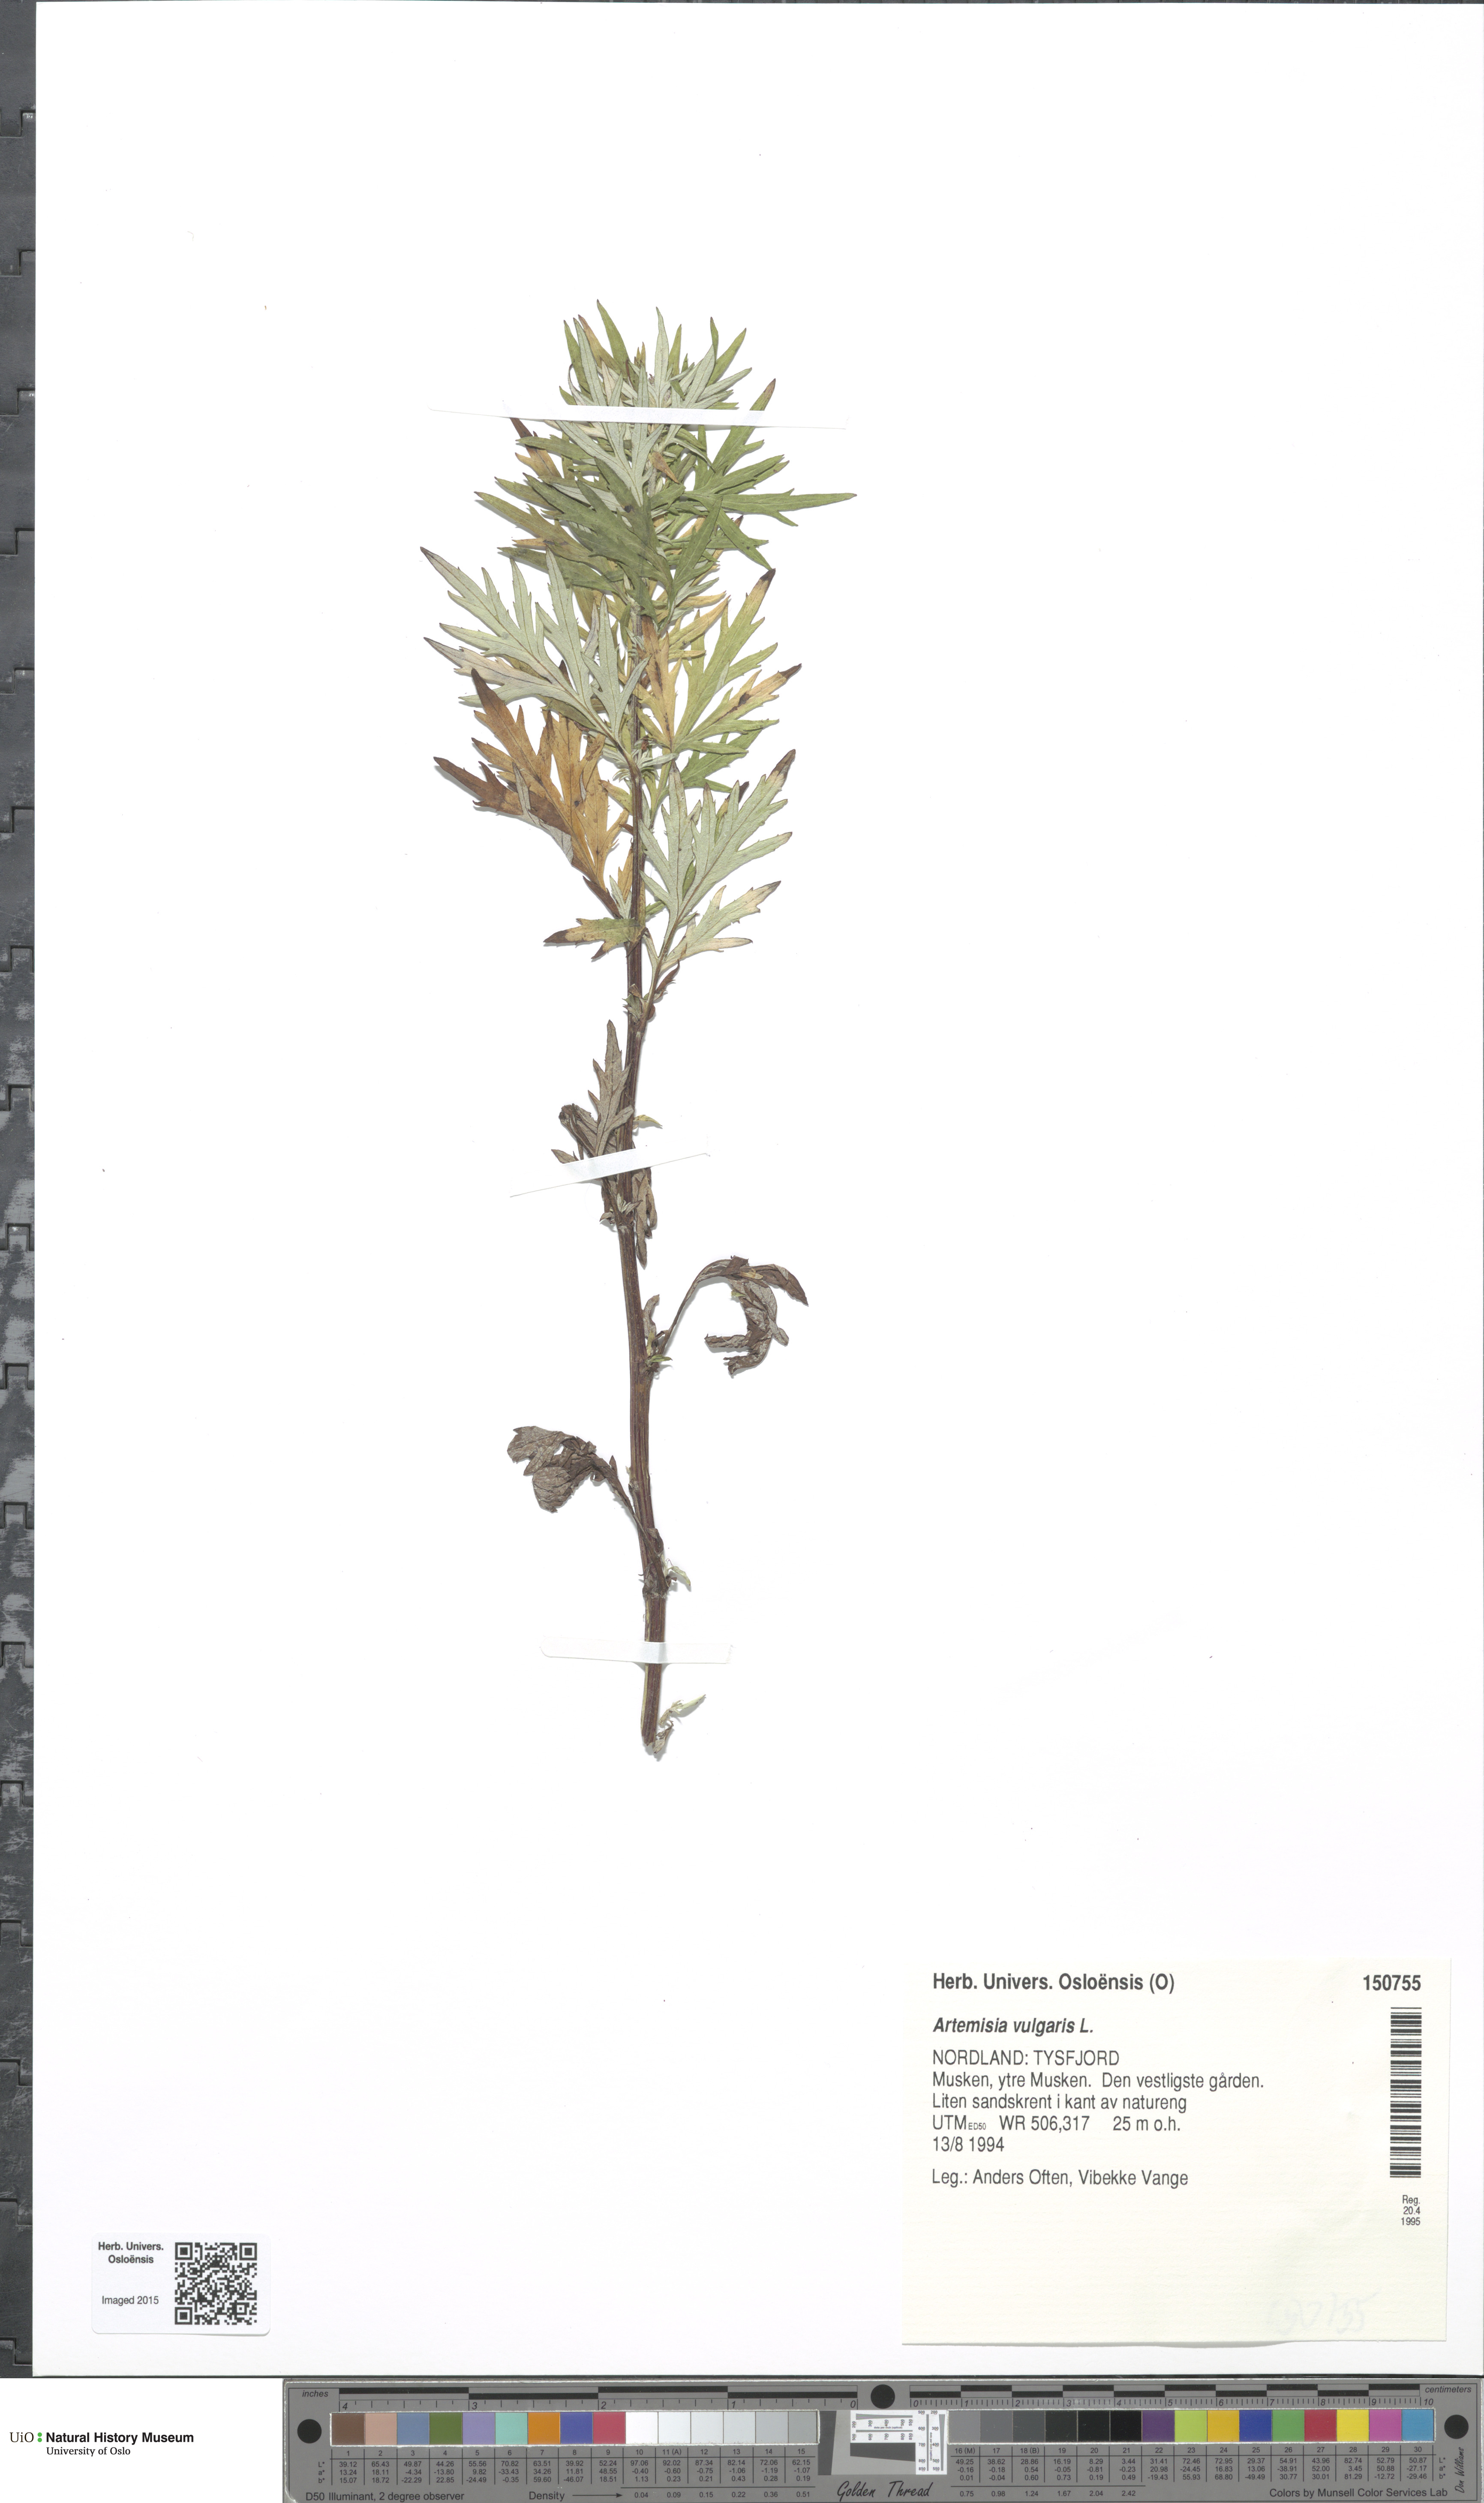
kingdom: Plantae
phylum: Tracheophyta
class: Magnoliopsida
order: Asterales
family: Asteraceae
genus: Artemisia
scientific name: Artemisia vulgaris
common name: Mugwort
